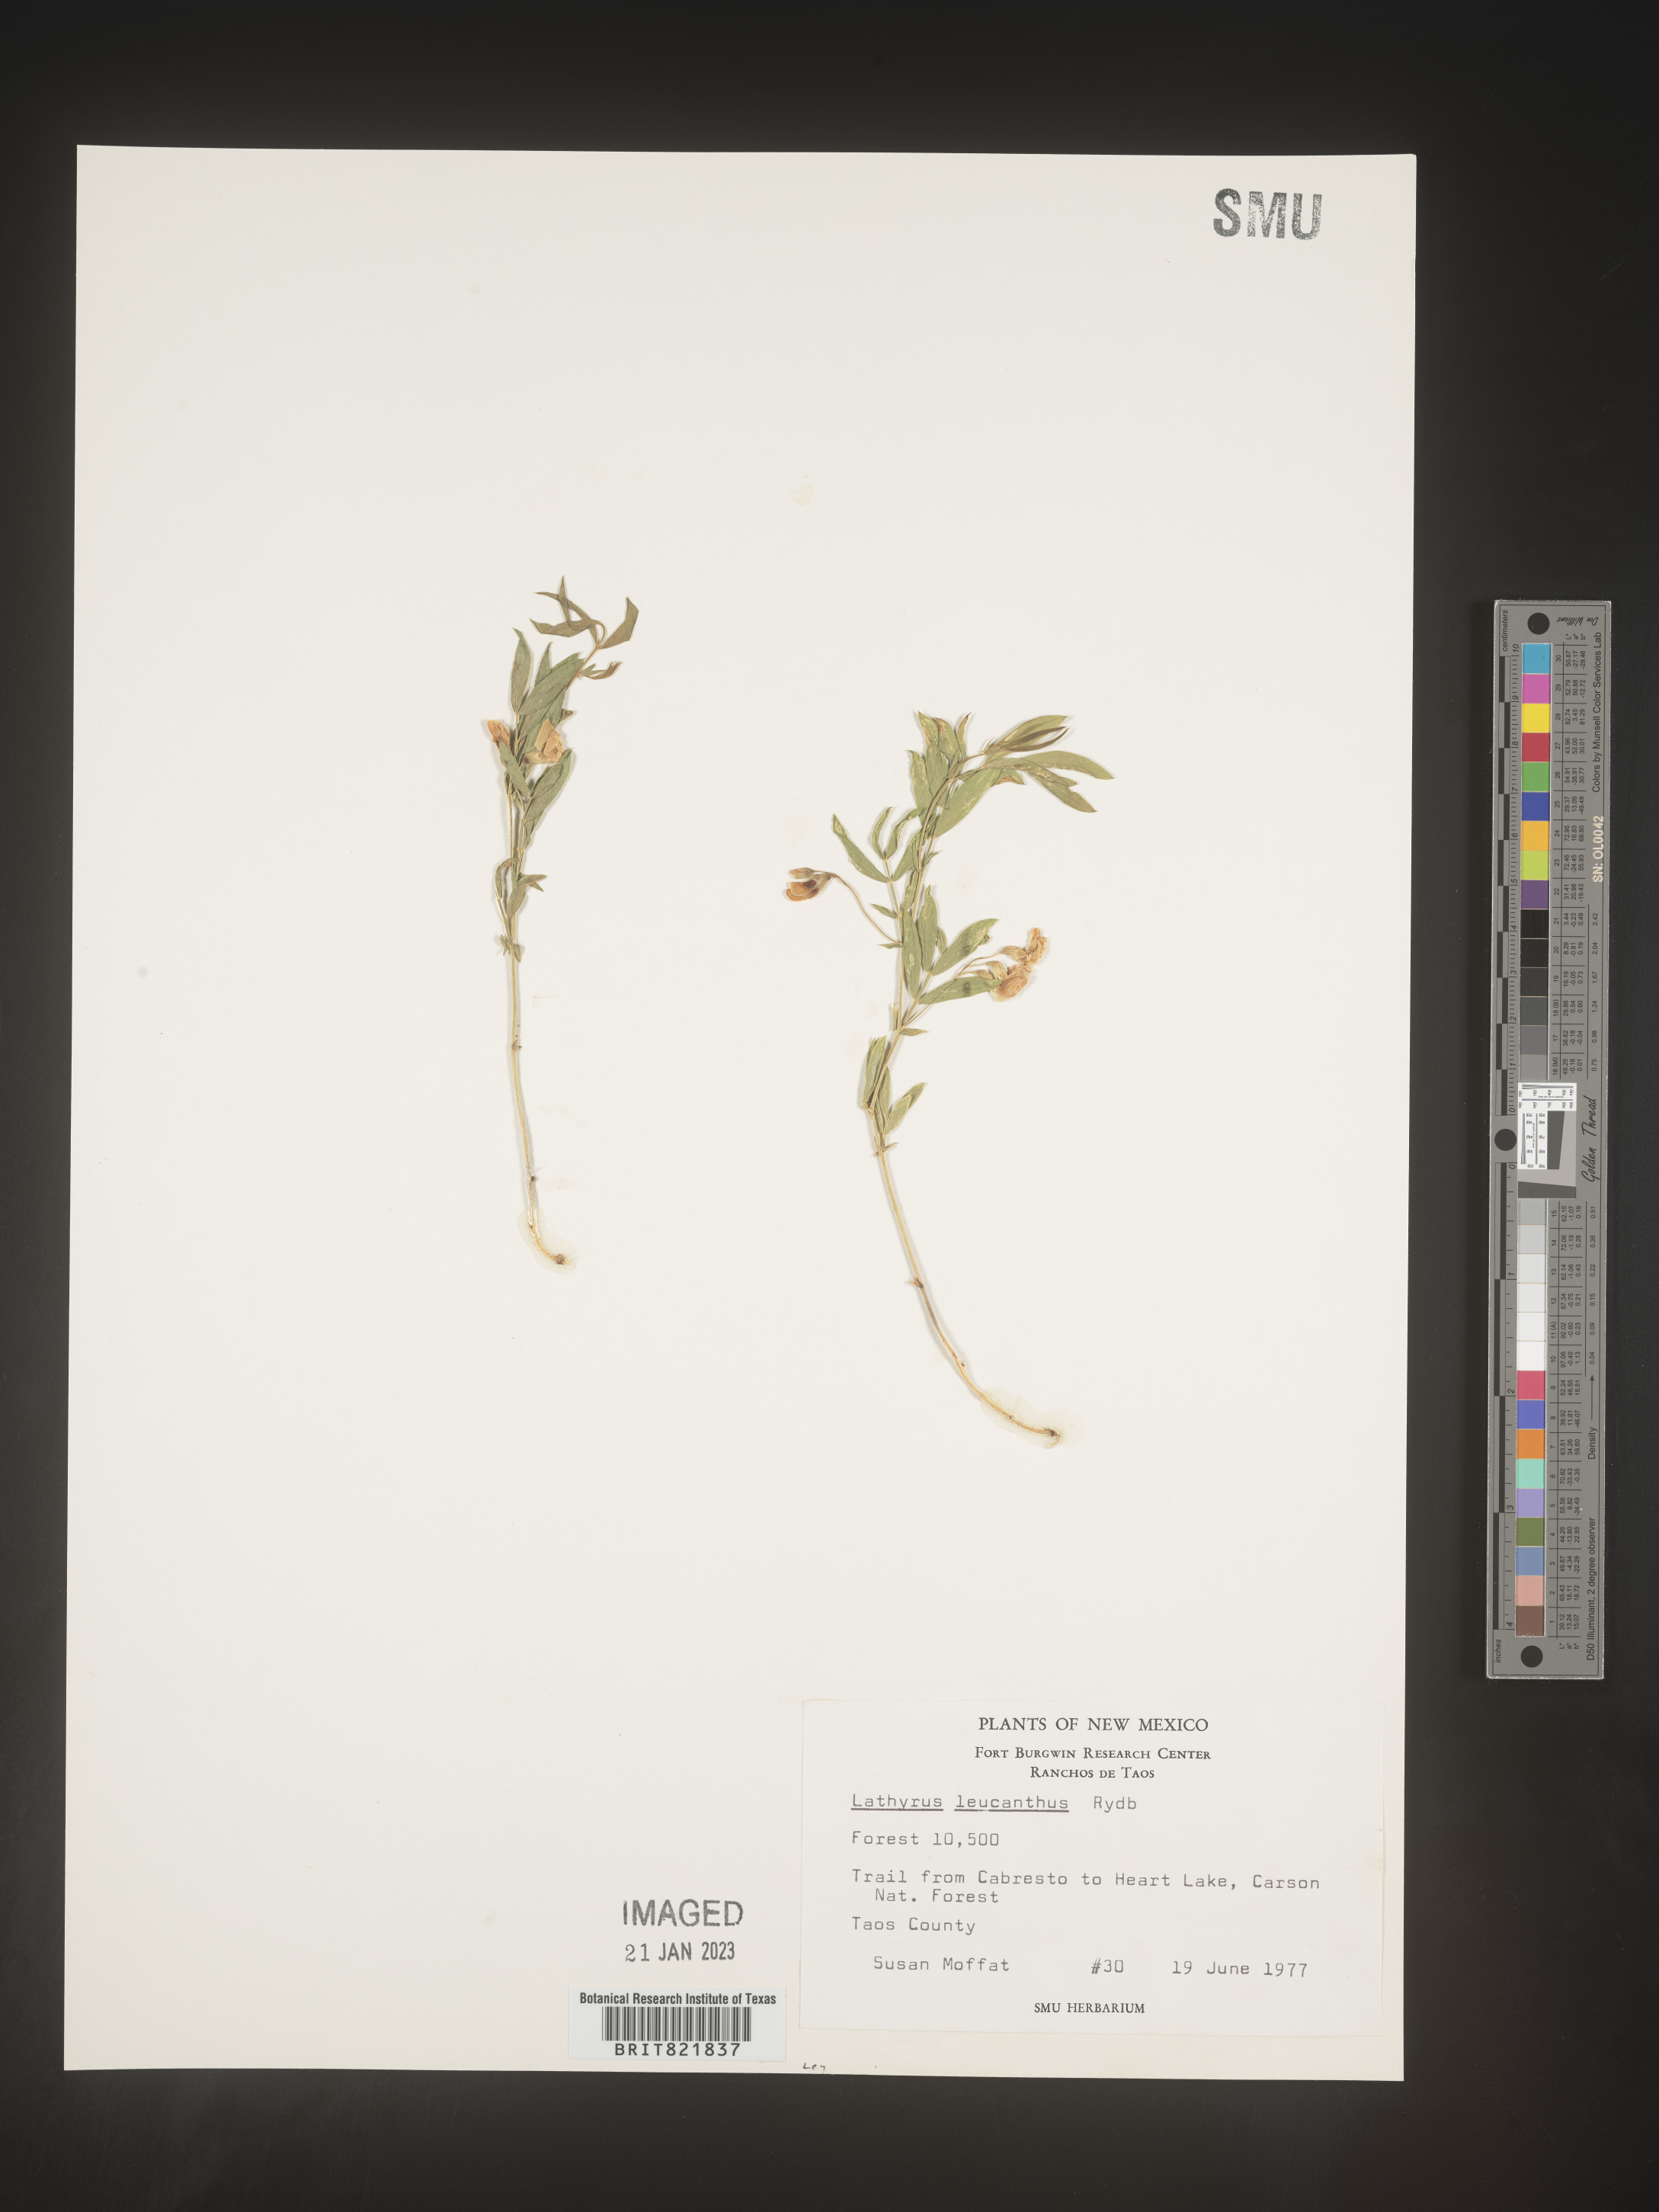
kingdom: Plantae
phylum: Tracheophyta
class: Magnoliopsida
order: Fabales
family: Fabaceae
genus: Lathyrus
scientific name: Lathyrus
